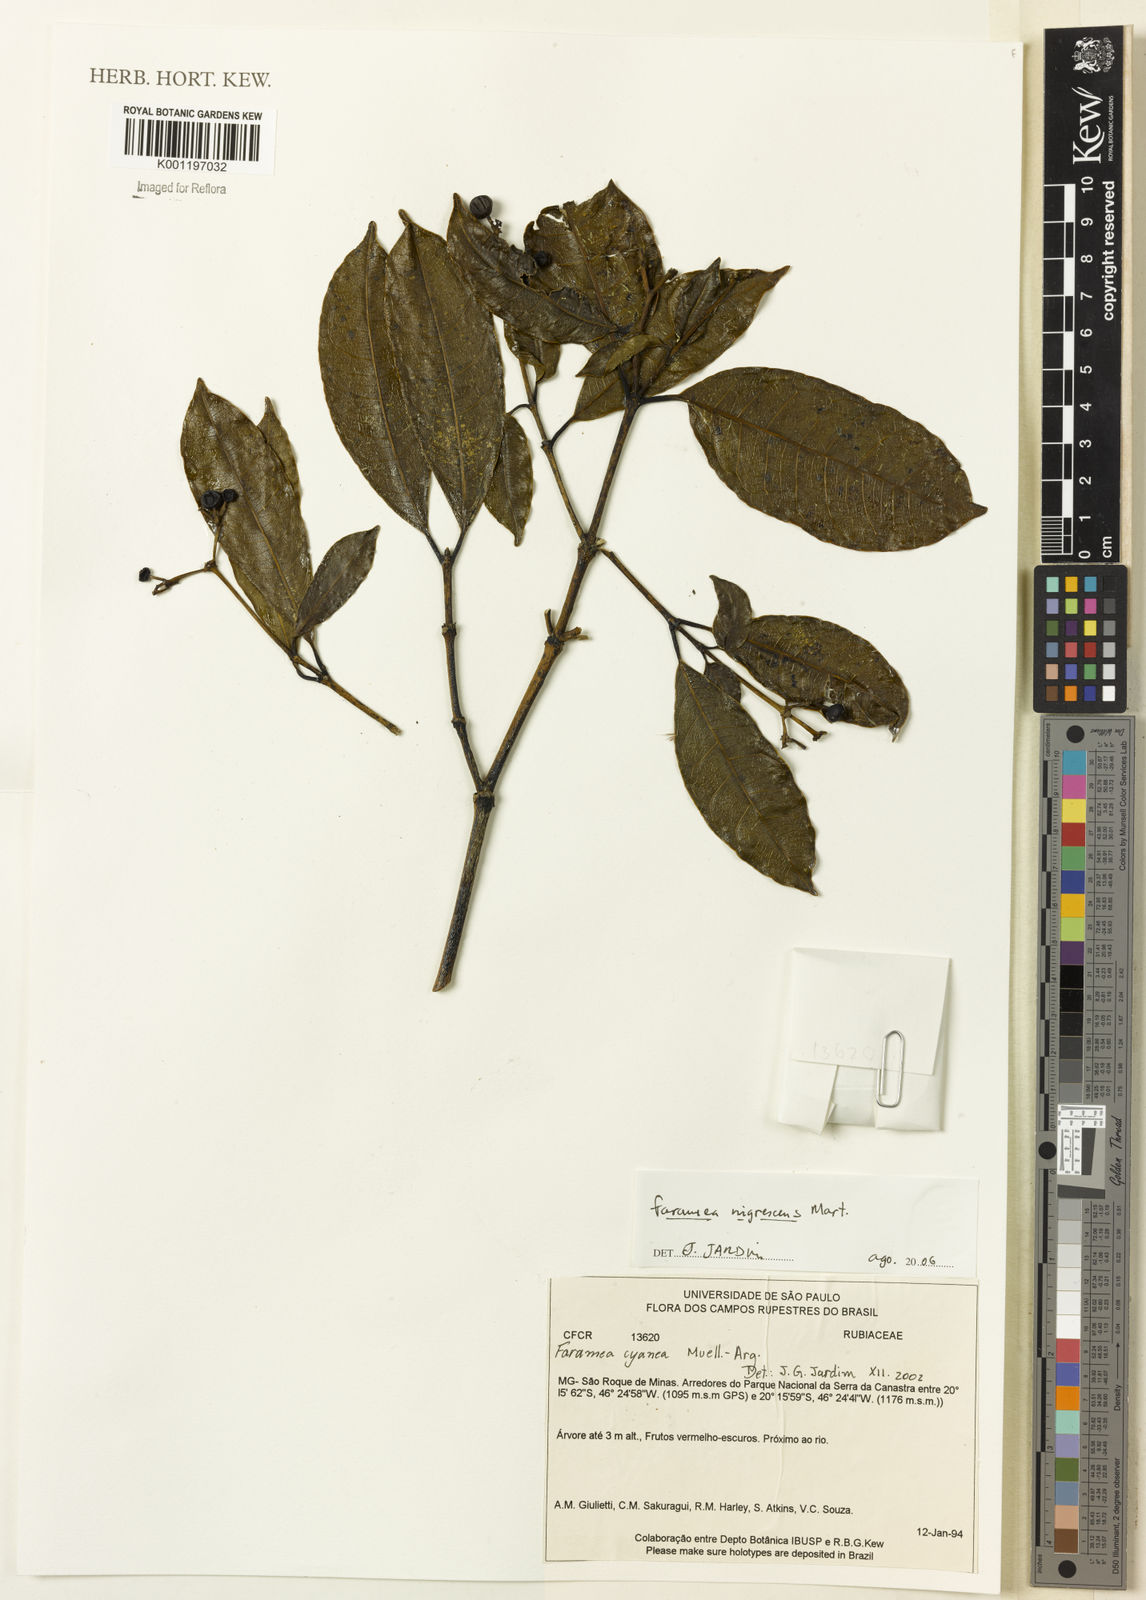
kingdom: Plantae
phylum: Tracheophyta
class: Magnoliopsida
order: Gentianales
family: Rubiaceae
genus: Faramea
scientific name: Faramea nigrescens
